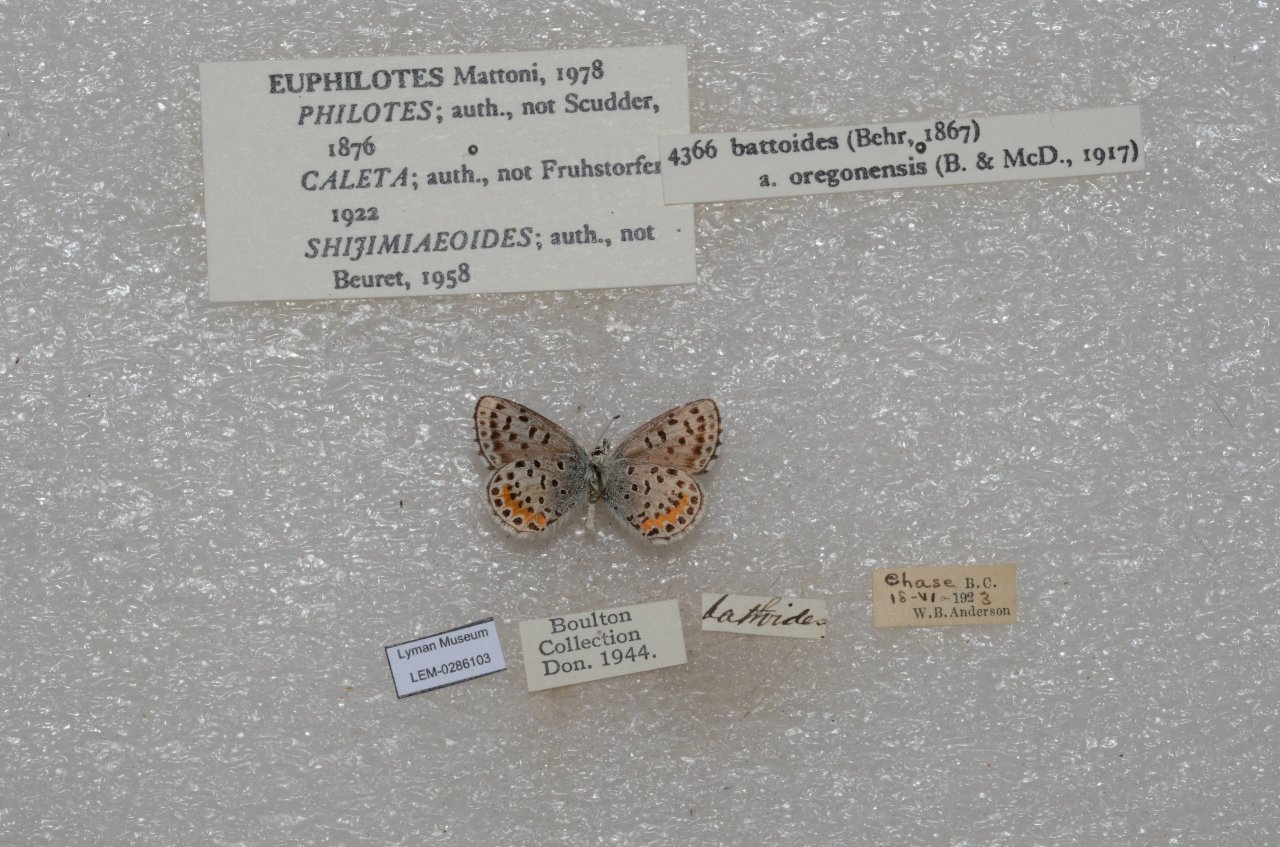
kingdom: Animalia
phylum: Arthropoda
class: Insecta
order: Lepidoptera
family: Lycaenidae
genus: Euphilotes
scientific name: Euphilotes battoides
